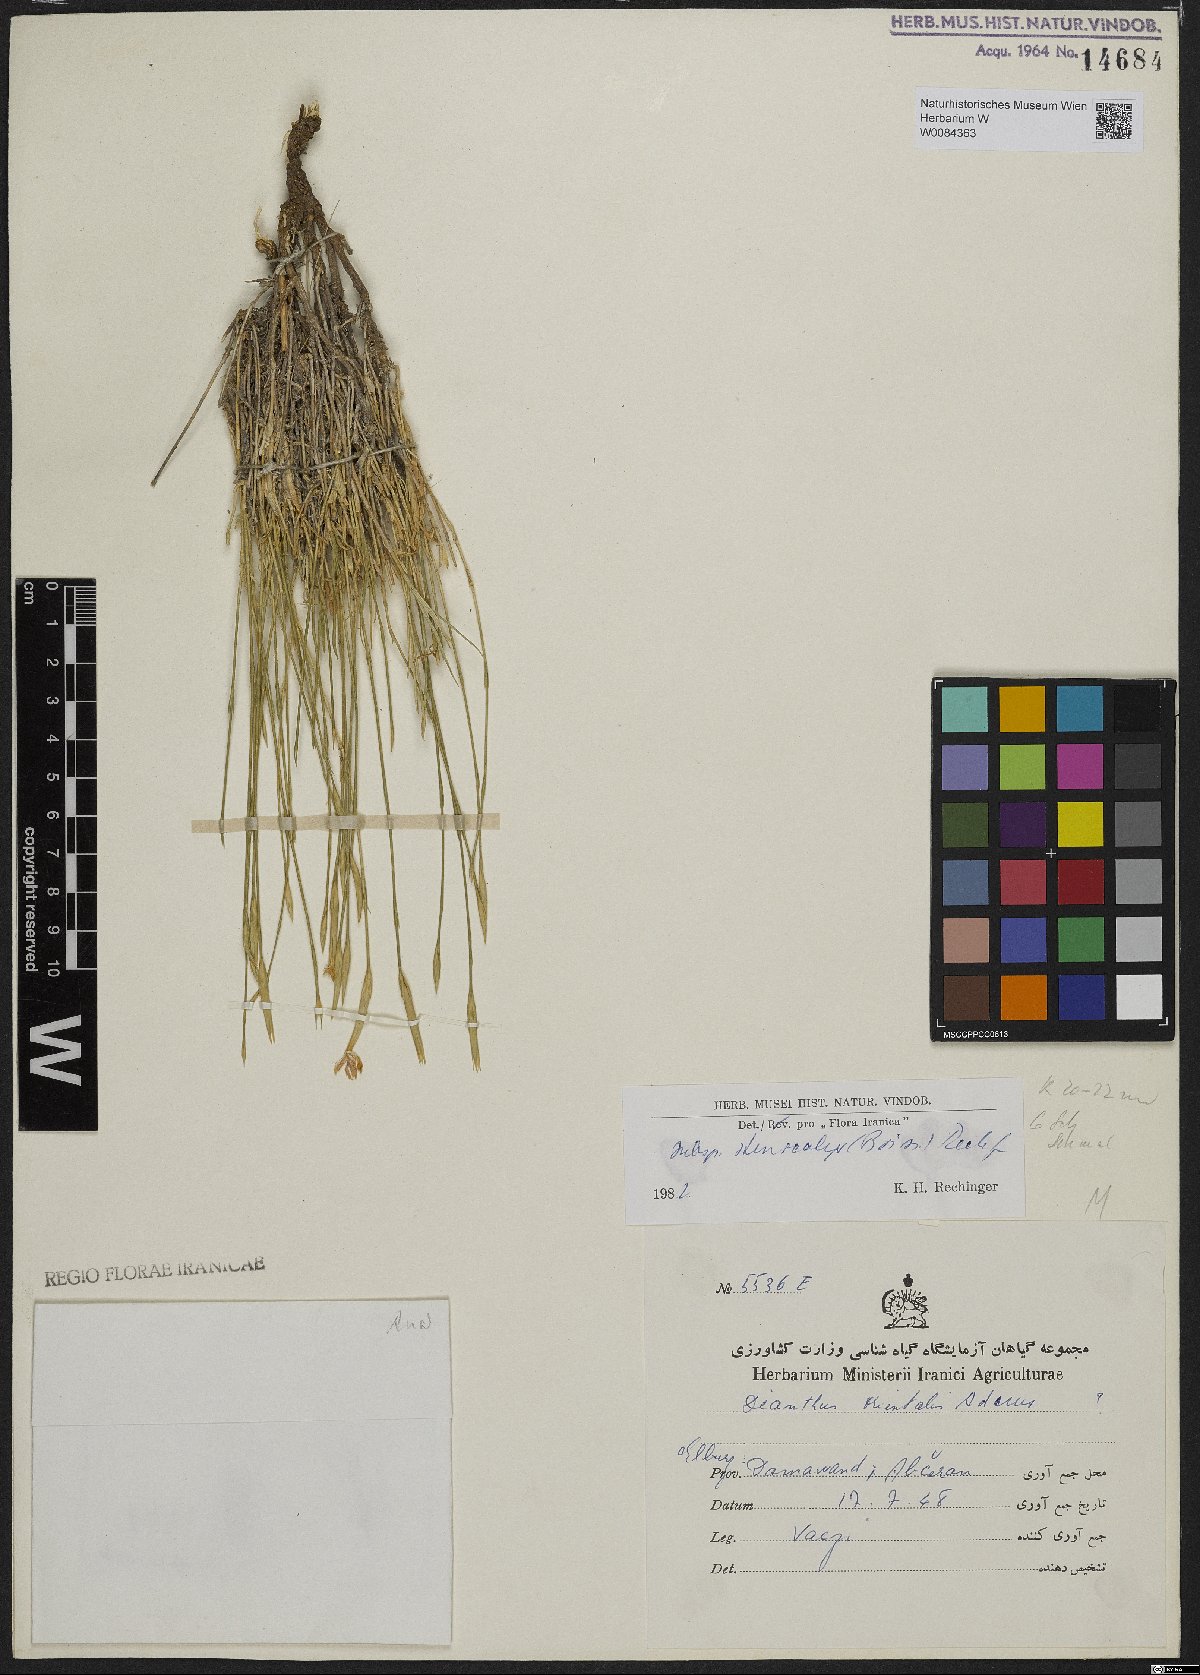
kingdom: Plantae
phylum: Tracheophyta
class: Magnoliopsida
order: Caryophyllales
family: Caryophyllaceae
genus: Dianthus
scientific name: Dianthus orientalis
